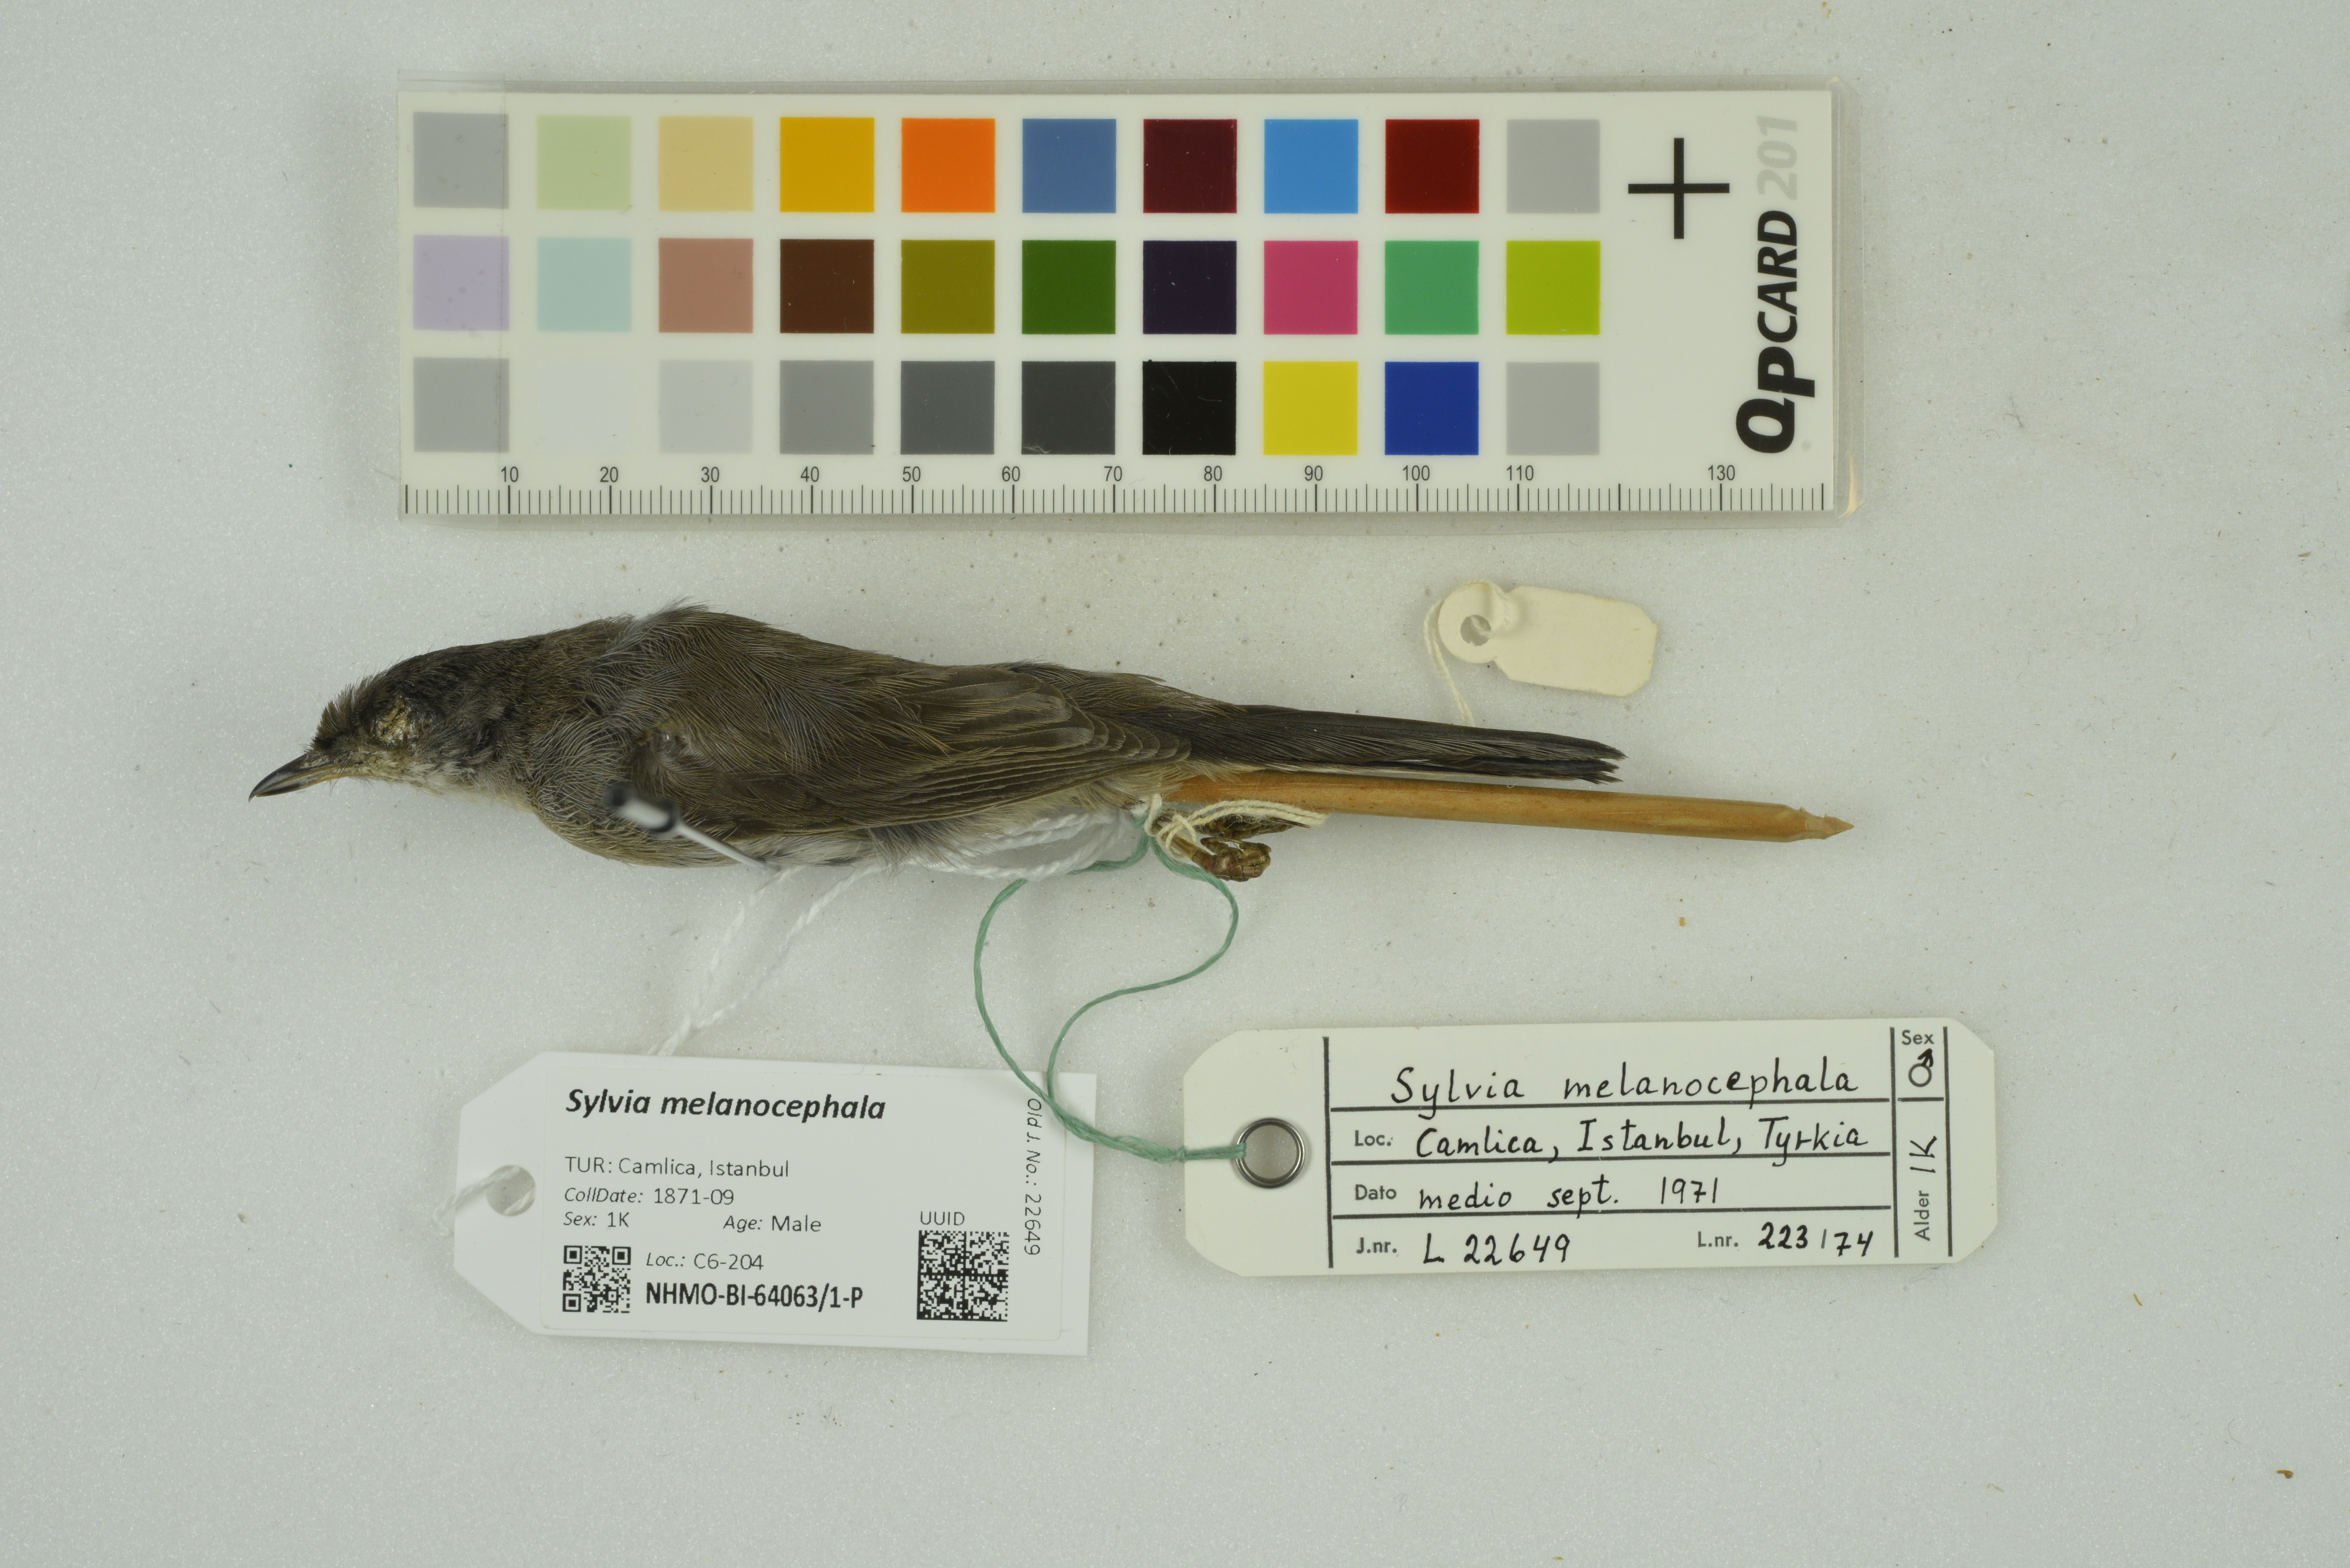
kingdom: Animalia
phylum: Chordata
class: Aves
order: Passeriformes
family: Sylviidae
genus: Curruca
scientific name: Curruca melanocephala
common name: Sardinian warbler
